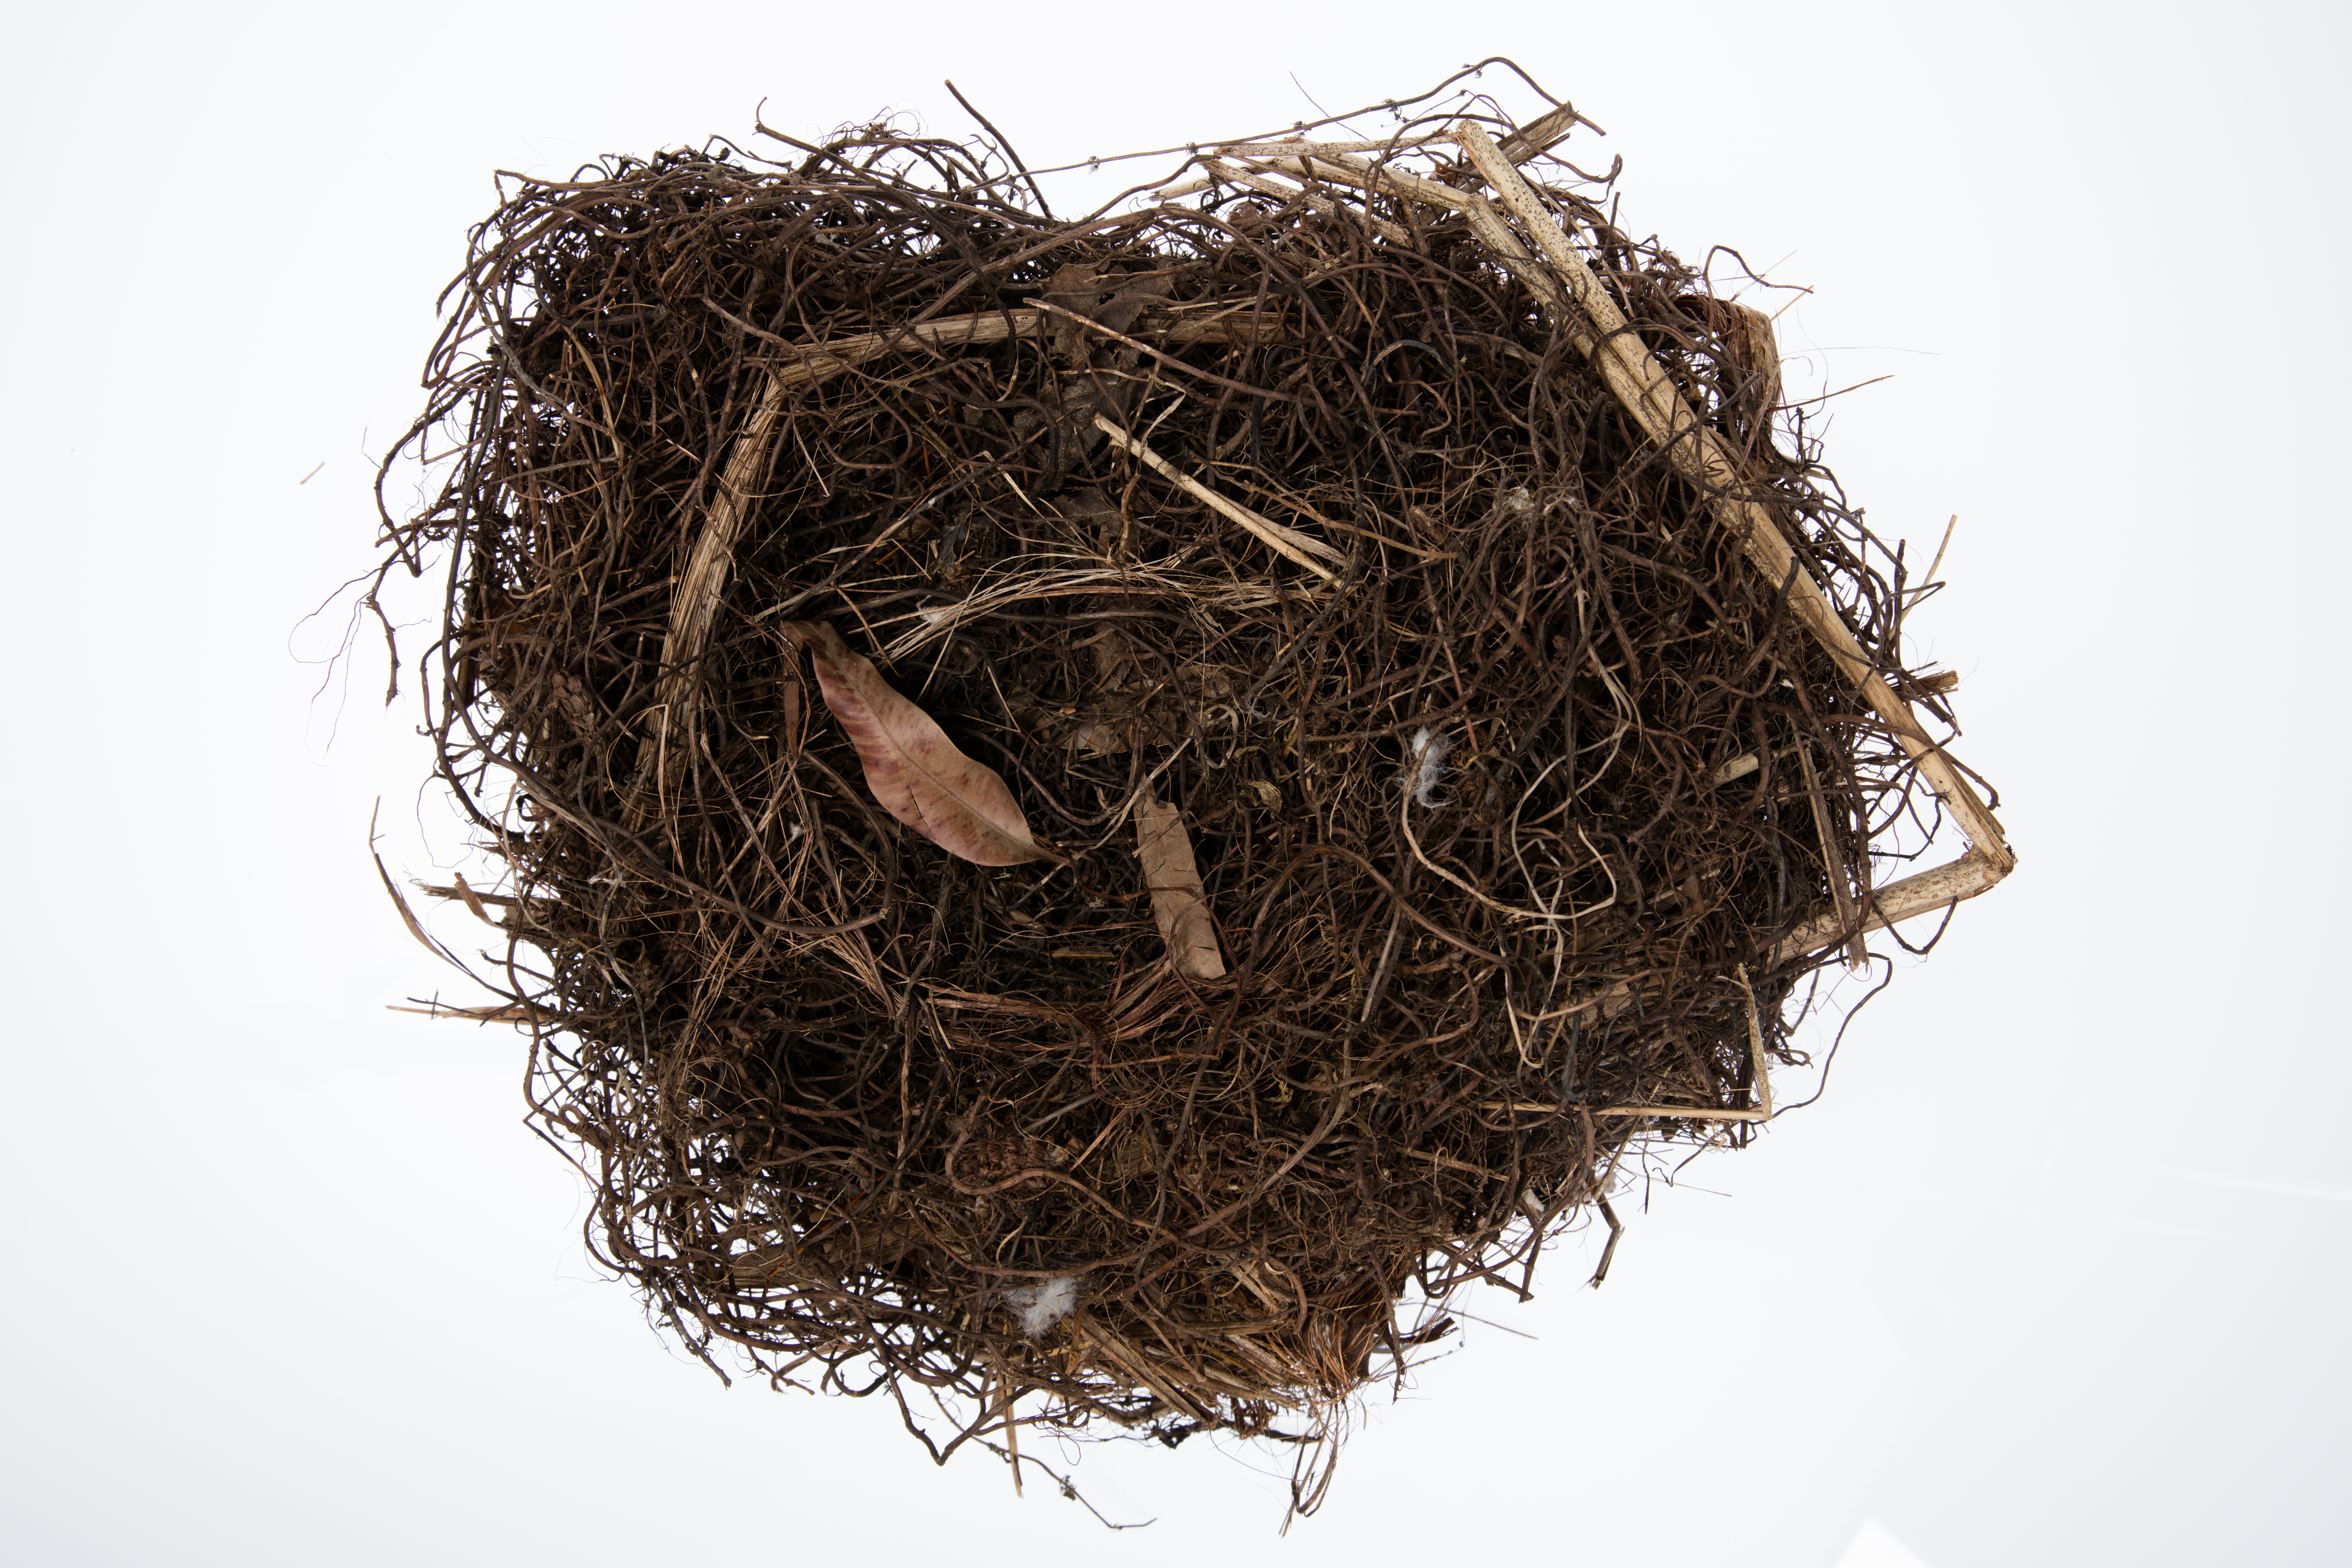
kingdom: Animalia
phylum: Chordata
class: Aves
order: Gruiformes
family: Rallidae
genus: Porphyrio
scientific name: Porphyrio melanotus
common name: Australasian swamphen
